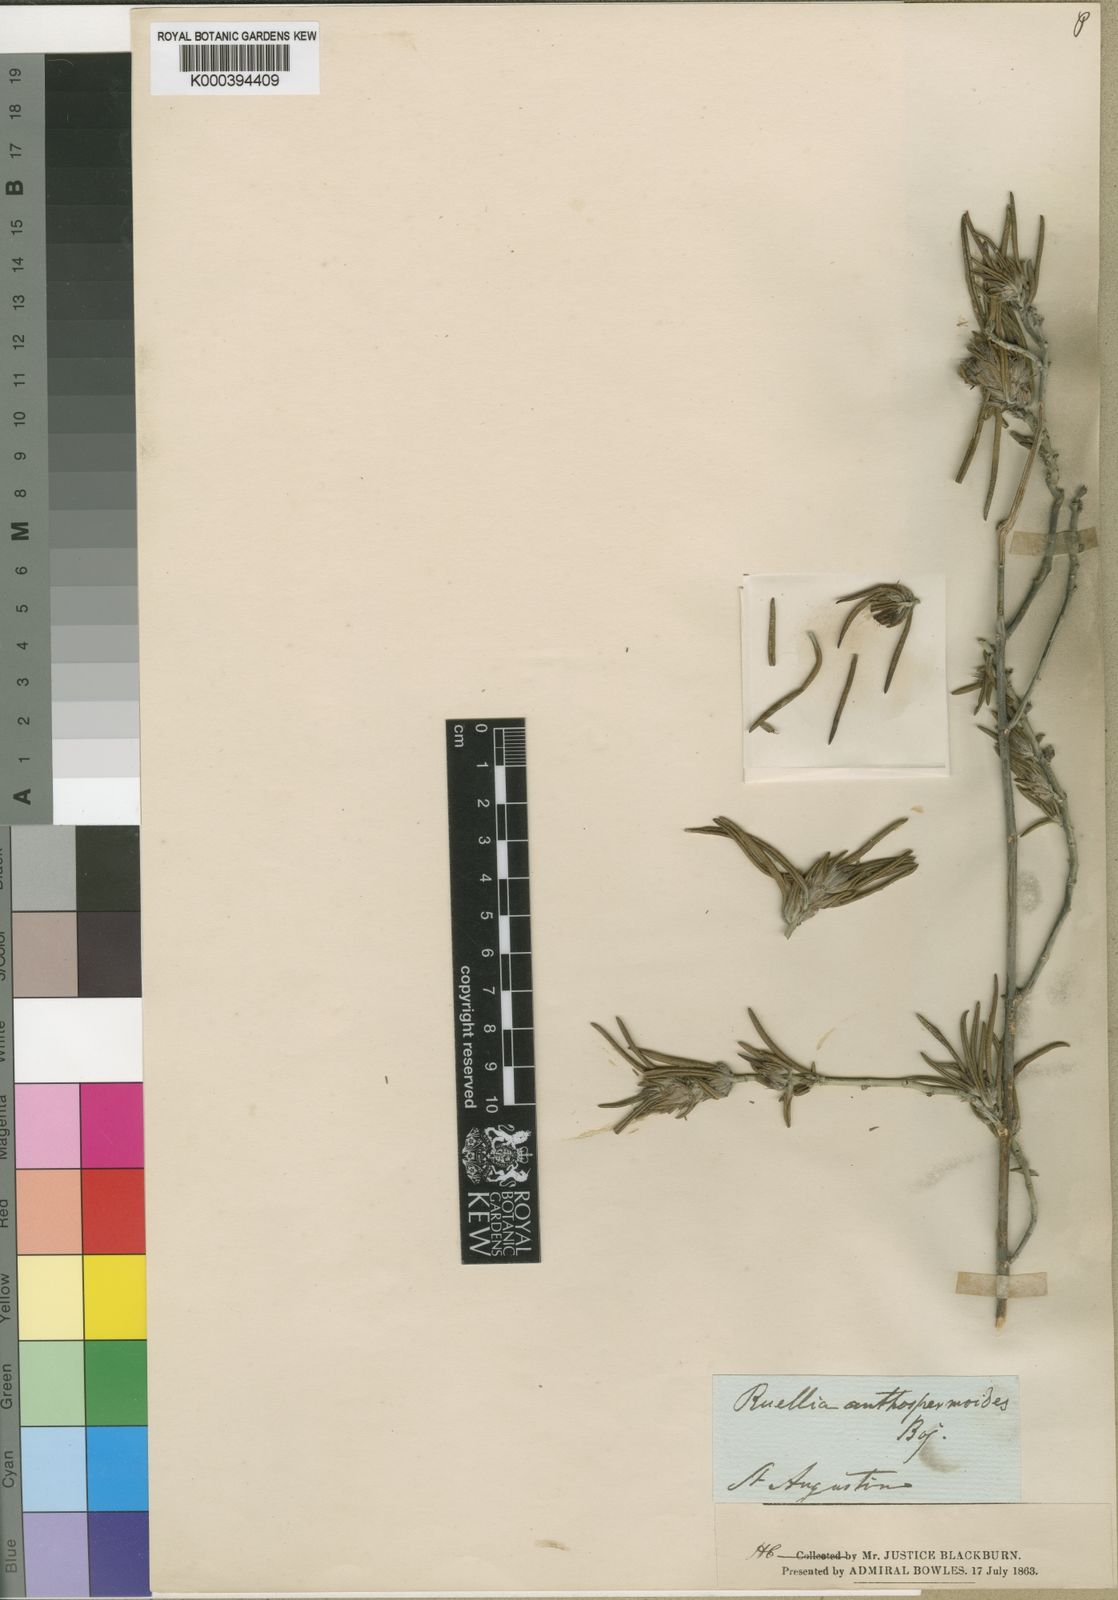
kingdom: Plantae
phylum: Tracheophyta
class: Magnoliopsida
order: Lamiales
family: Acanthaceae
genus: Lasiocladus
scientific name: Lasiocladus anthospermifolius
